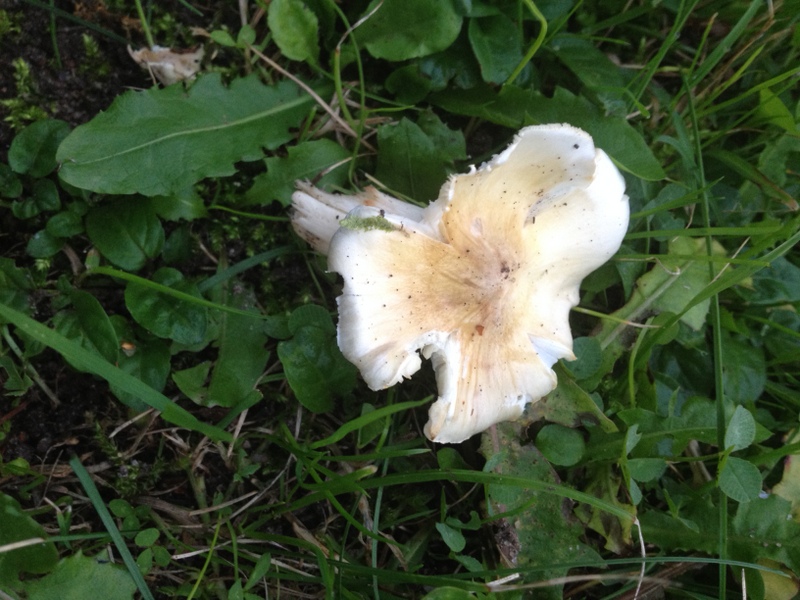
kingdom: Fungi
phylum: Basidiomycota
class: Agaricomycetes
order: Agaricales
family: Tricholomataceae
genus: Tricholoma
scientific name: Tricholoma umbonatum
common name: puklet ridderhat
